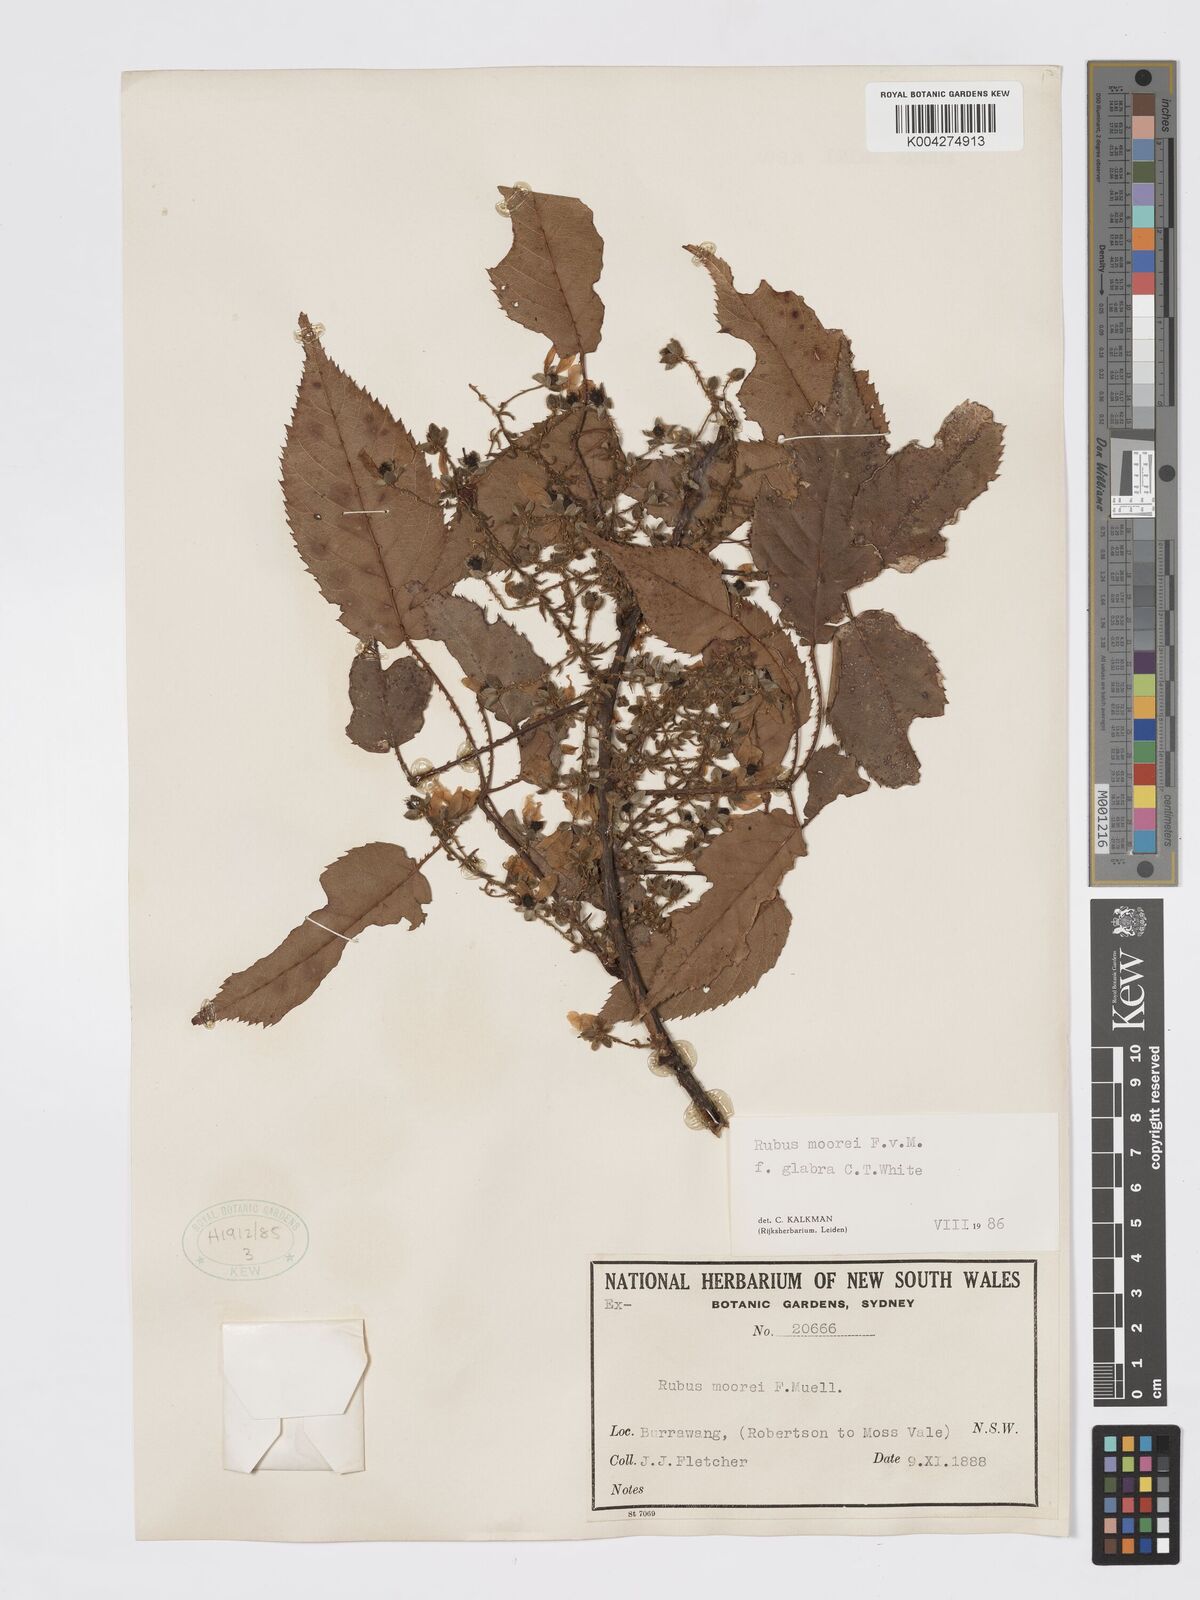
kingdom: Plantae
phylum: Tracheophyta
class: Magnoliopsida
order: Rosales
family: Rosaceae
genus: Rubus
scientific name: Rubus moorei
